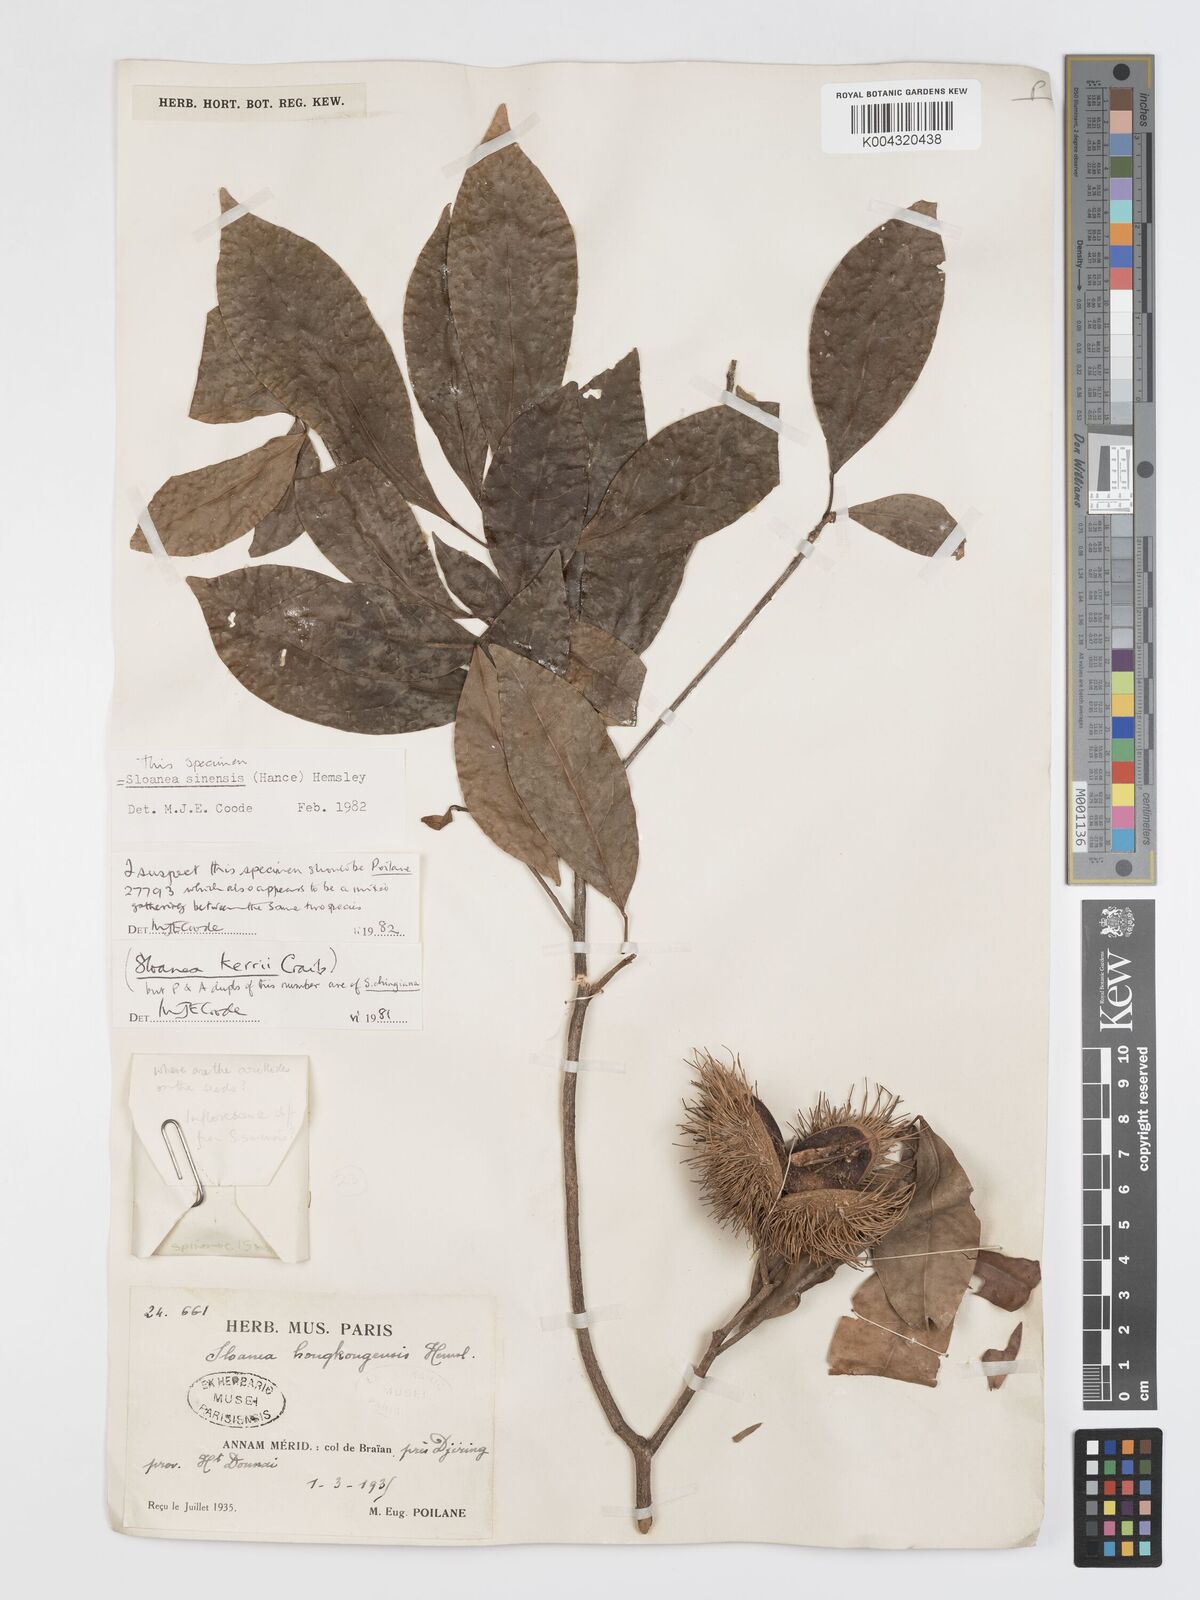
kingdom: Plantae
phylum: Tracheophyta
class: Magnoliopsida
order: Oxalidales
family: Elaeocarpaceae
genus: Sloanea
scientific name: Sloanea sinensis
